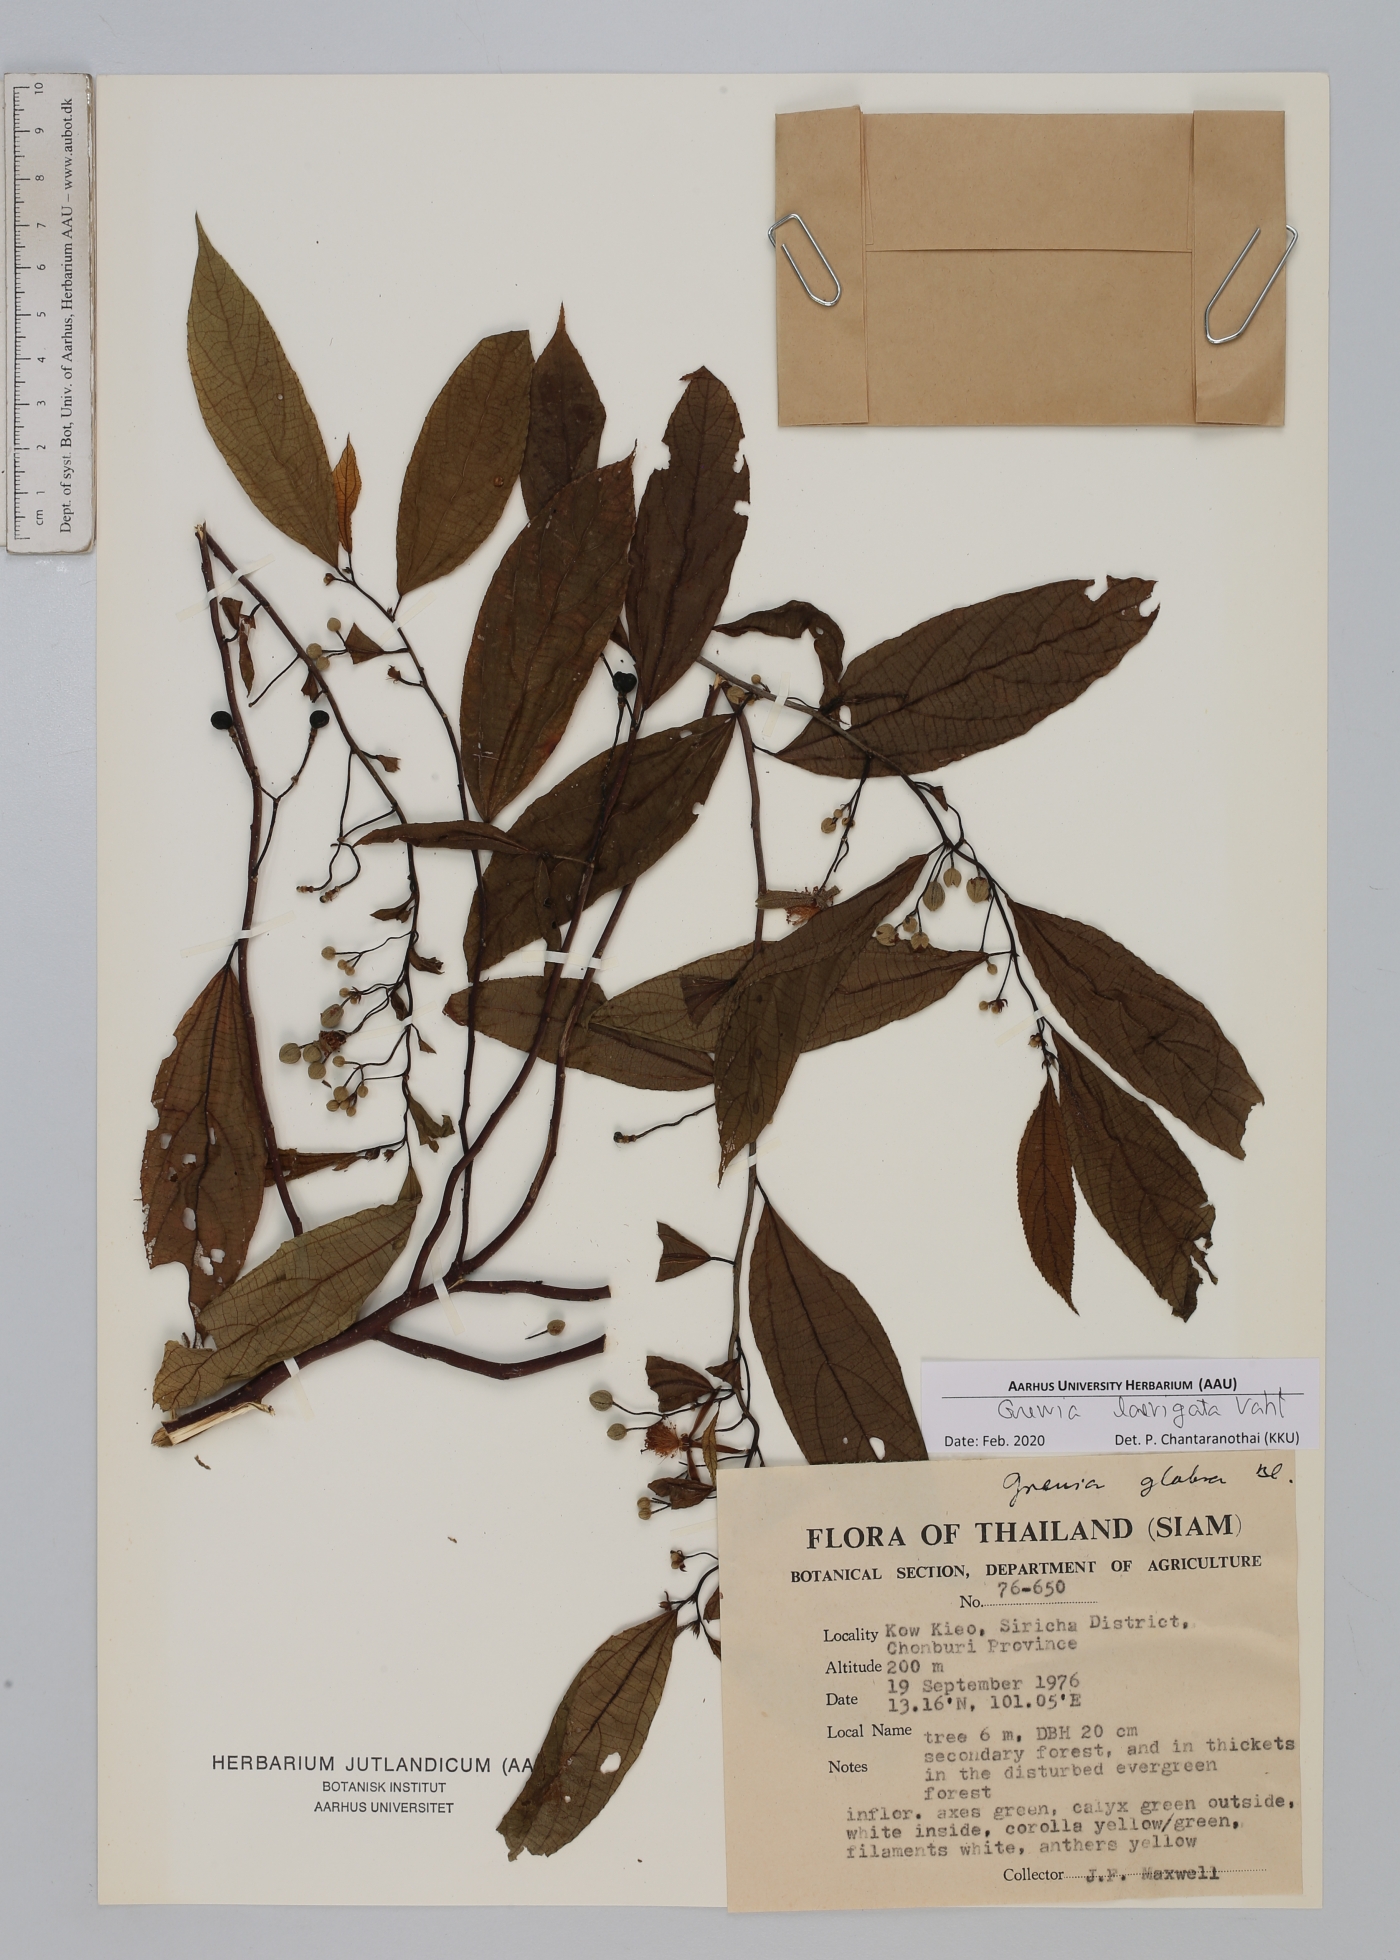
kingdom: Plantae
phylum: Tracheophyta
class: Magnoliopsida
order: Malvales
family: Malvaceae
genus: Grewia
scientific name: Grewia laevigata
